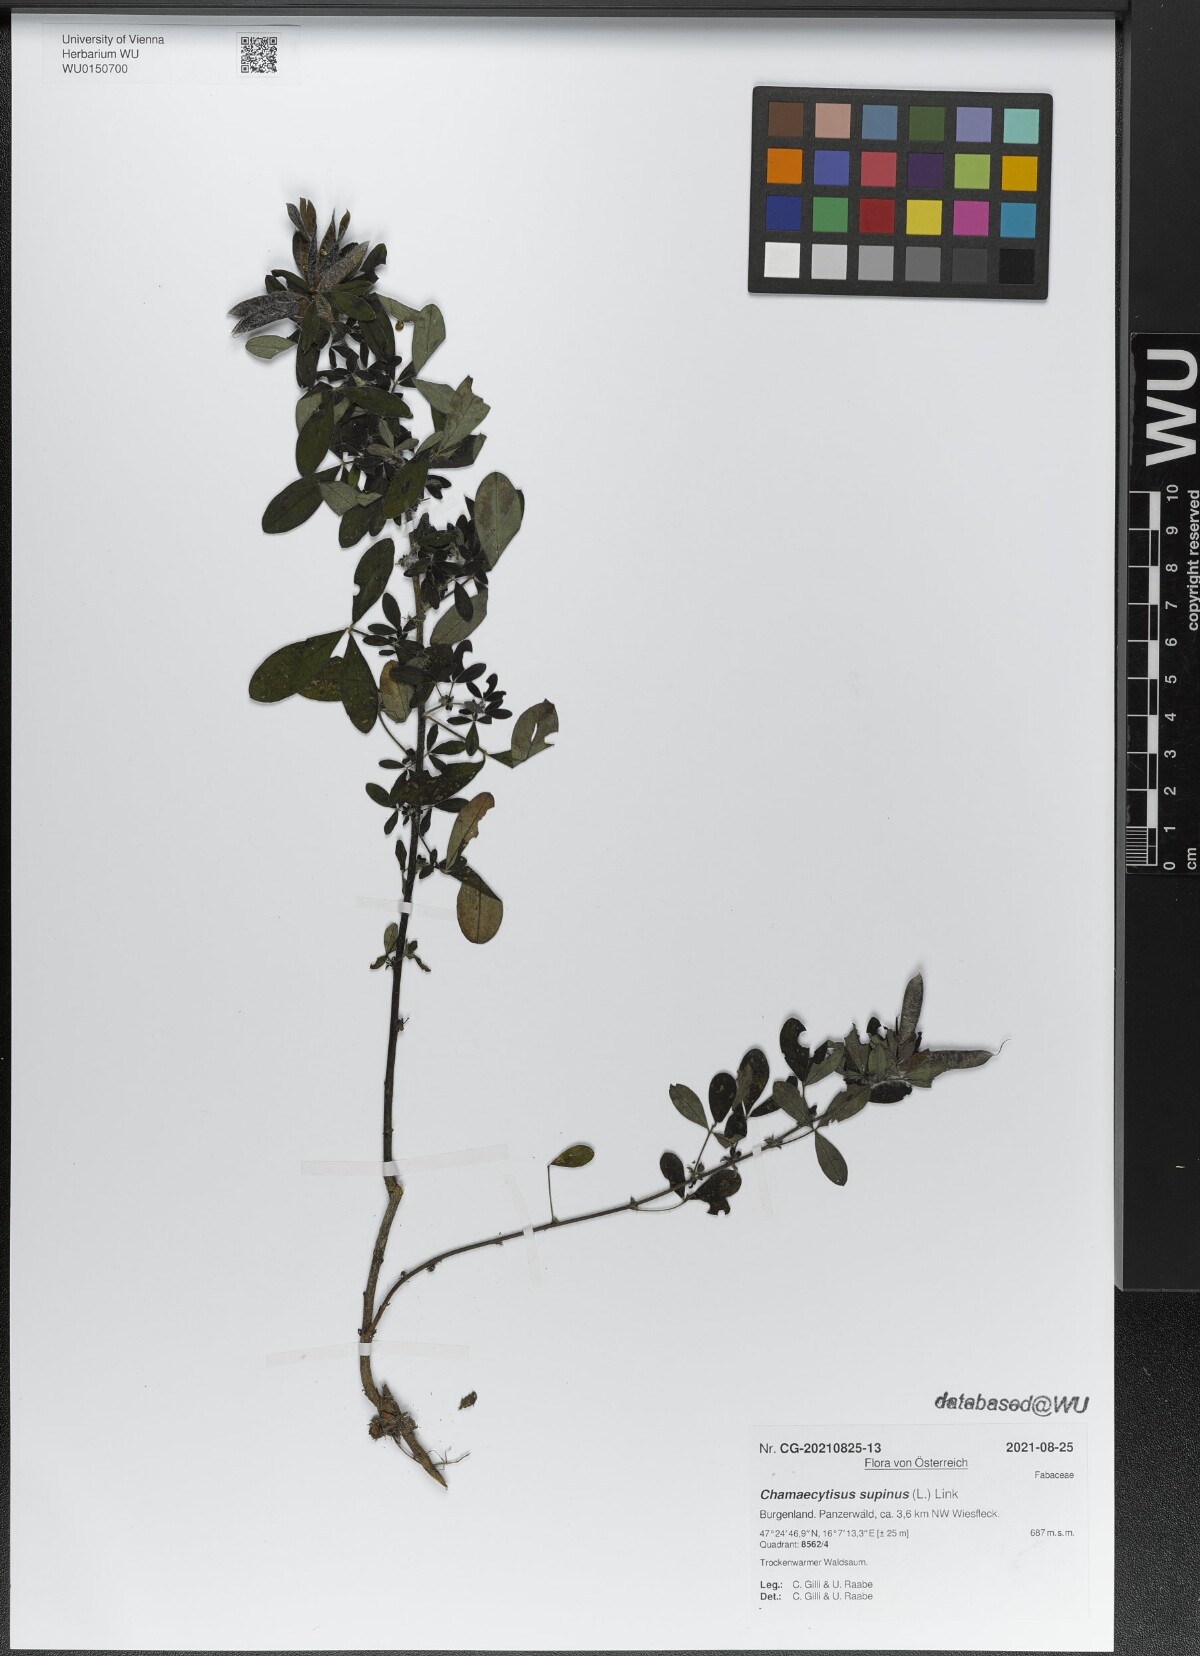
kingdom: Plantae
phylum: Tracheophyta
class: Magnoliopsida
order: Fabales
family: Fabaceae
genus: Chamaecytisus
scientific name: Chamaecytisus supinus
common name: Clustered broom
